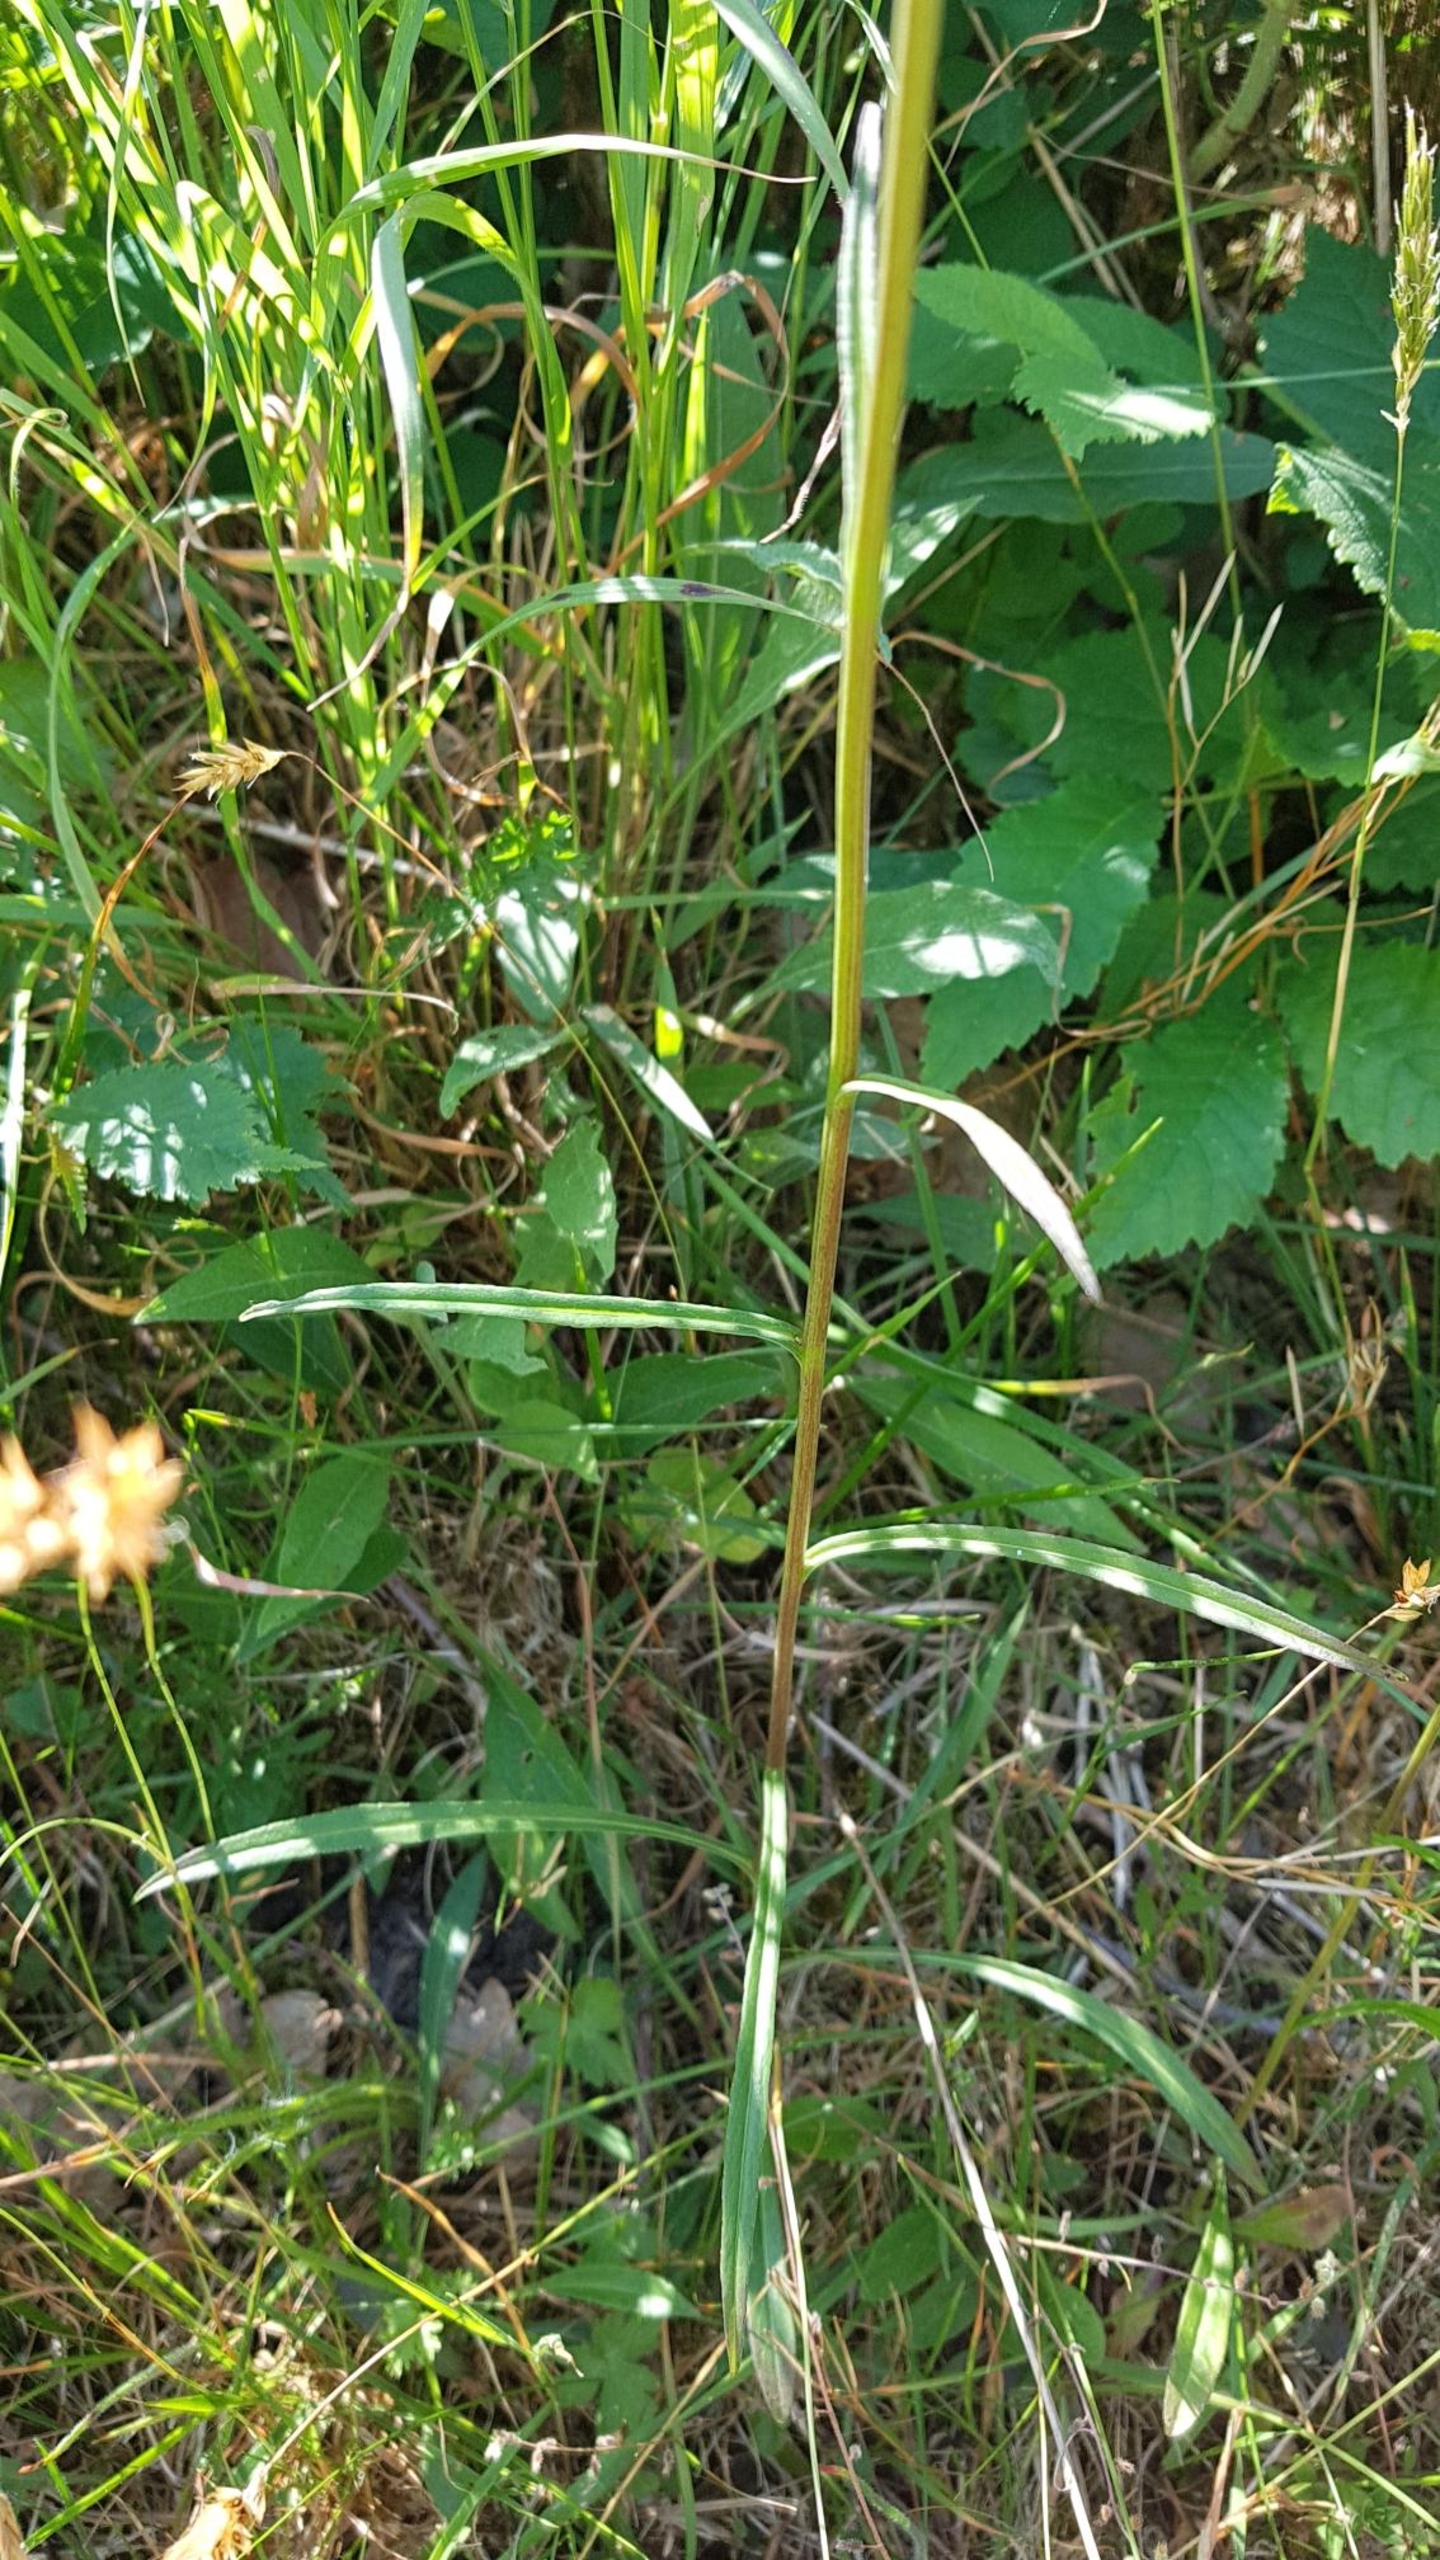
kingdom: Plantae
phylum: Tracheophyta
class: Magnoliopsida
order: Asterales
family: Campanulaceae
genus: Campanula
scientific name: Campanula persicifolia
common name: Smalbladet klokke
